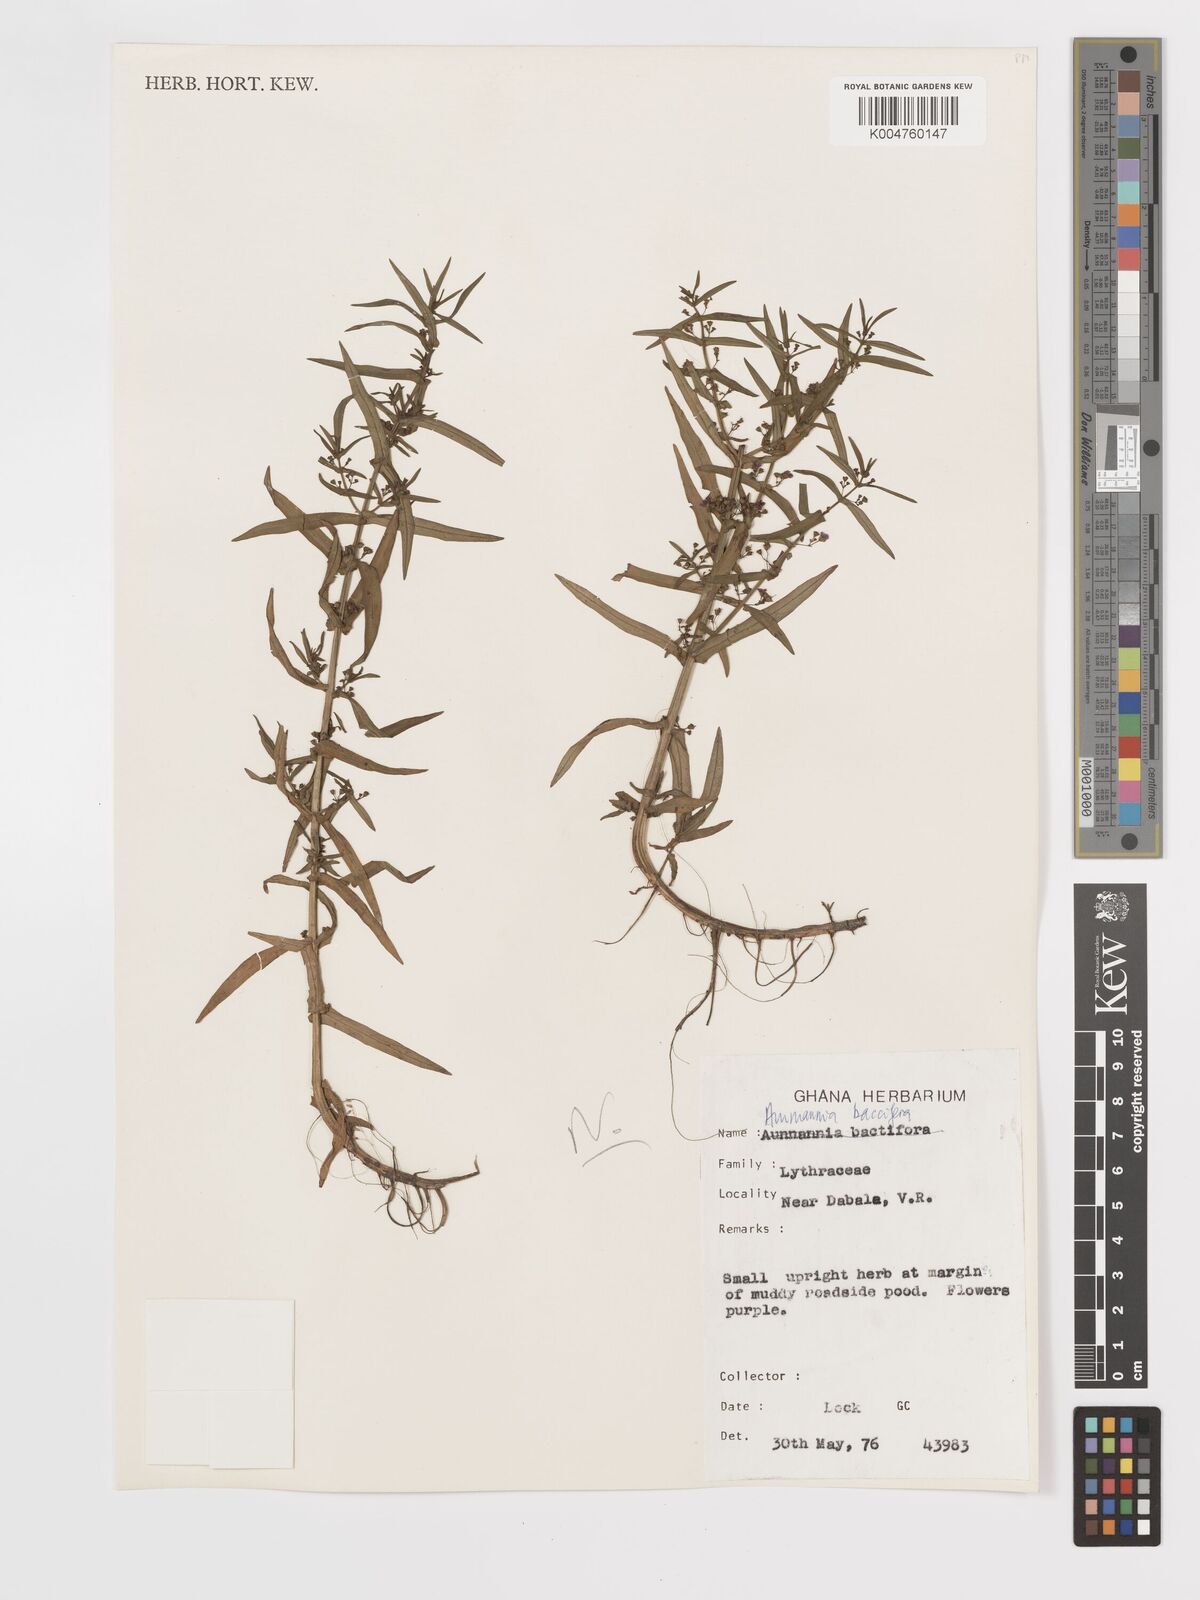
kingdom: Plantae
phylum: Tracheophyta
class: Magnoliopsida
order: Myrtales
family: Lythraceae
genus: Ammannia
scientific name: Ammannia
